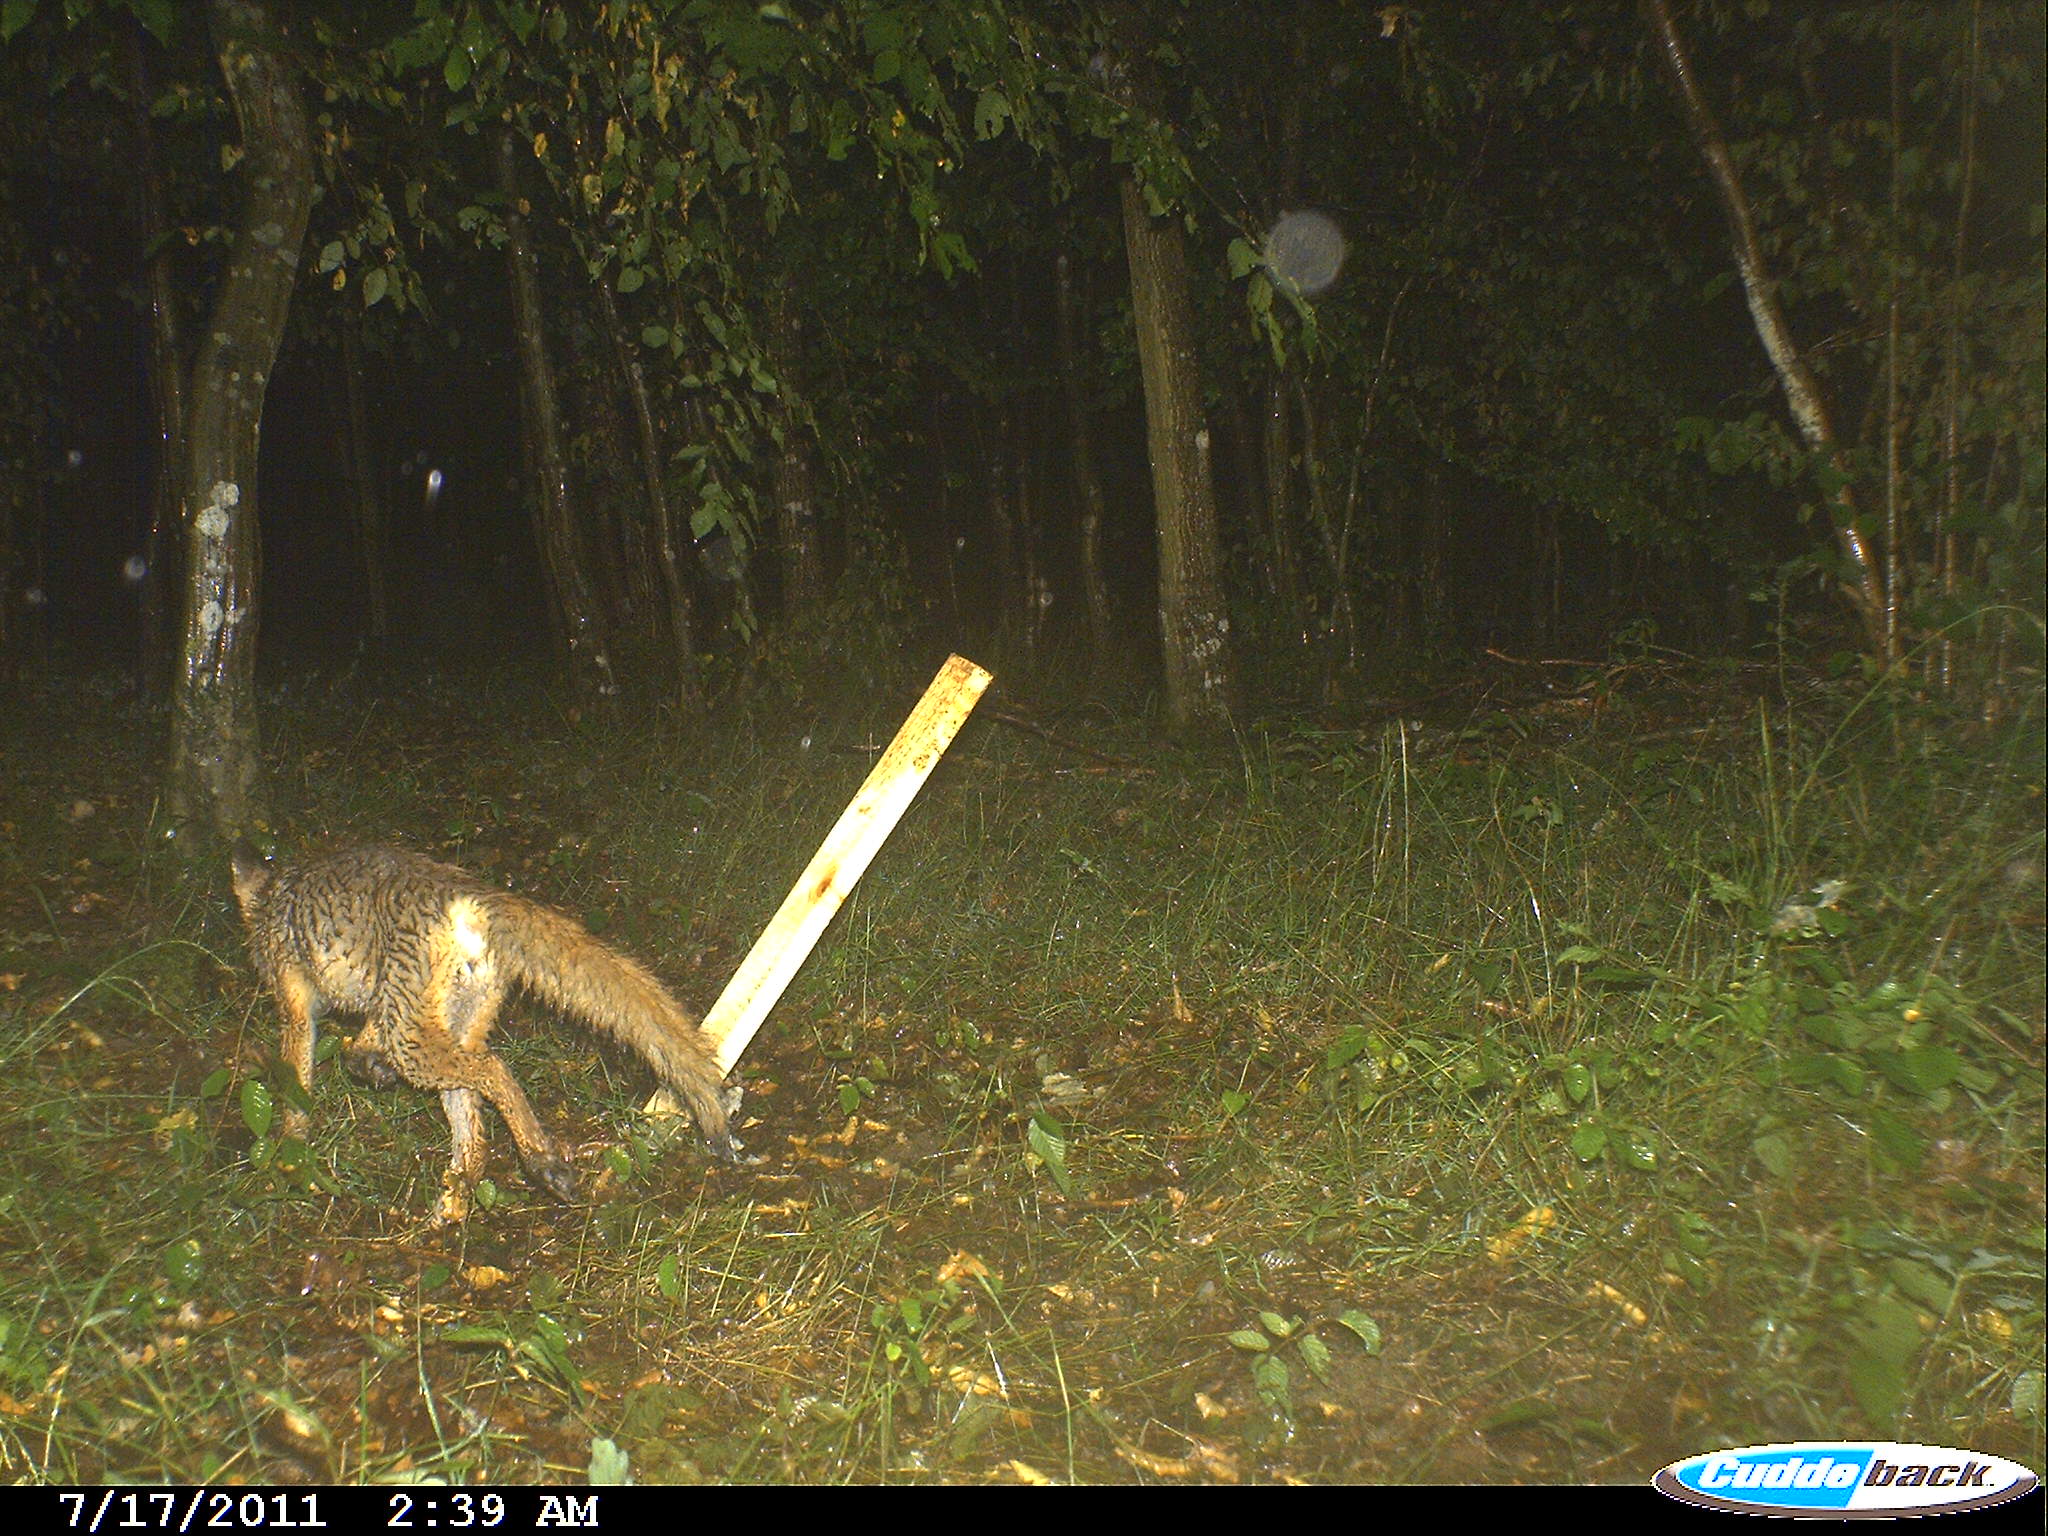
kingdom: Animalia
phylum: Chordata
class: Mammalia
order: Carnivora
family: Canidae
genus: Vulpes
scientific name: Vulpes vulpes
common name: Red fox
